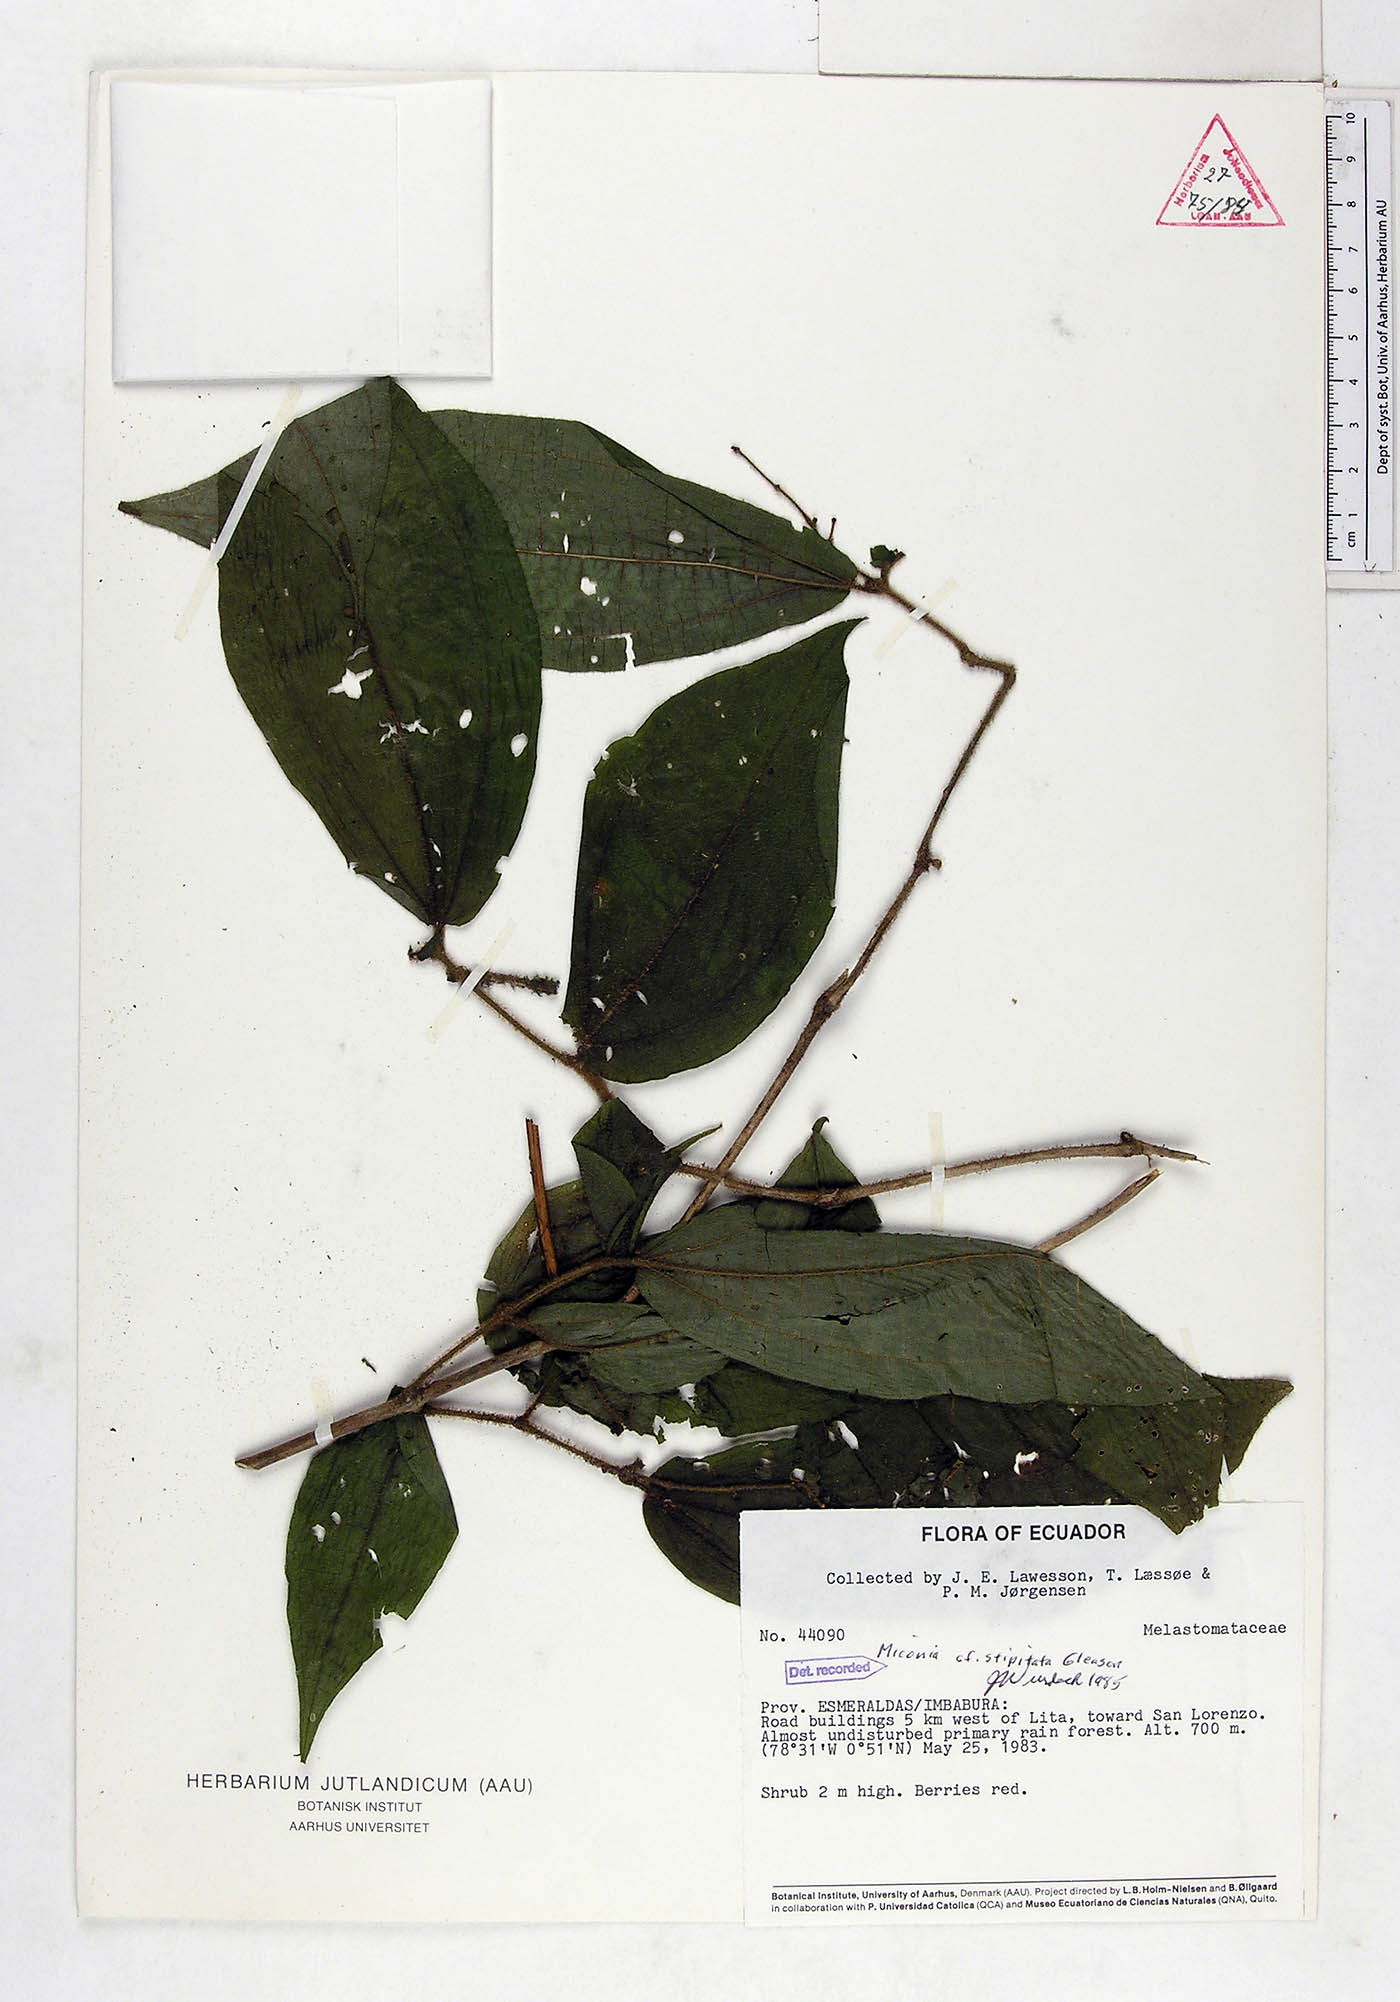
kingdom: Plantae
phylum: Tracheophyta
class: Magnoliopsida
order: Myrtales
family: Melastomataceae
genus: Miconia
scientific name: Miconia stipitata
